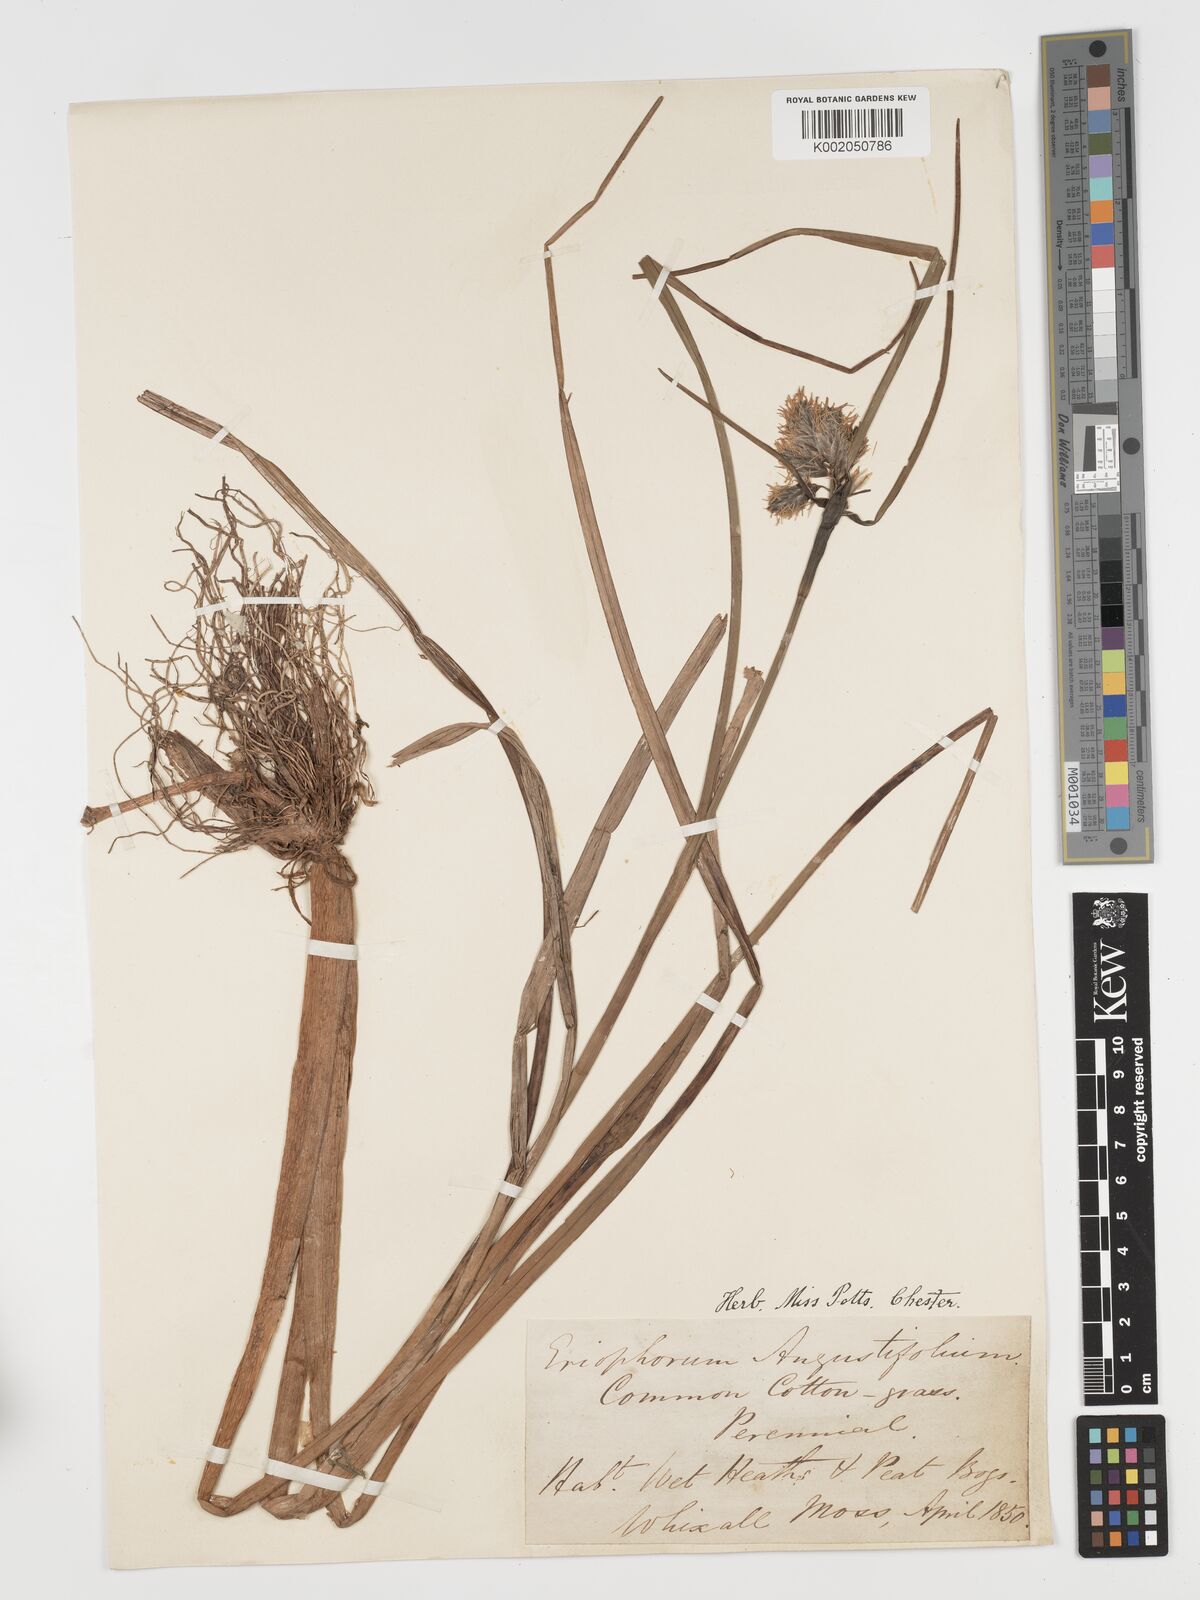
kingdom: Plantae
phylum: Tracheophyta
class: Liliopsida
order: Poales
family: Cyperaceae
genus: Eriophorum
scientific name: Eriophorum angustifolium
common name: Common cottongrass
